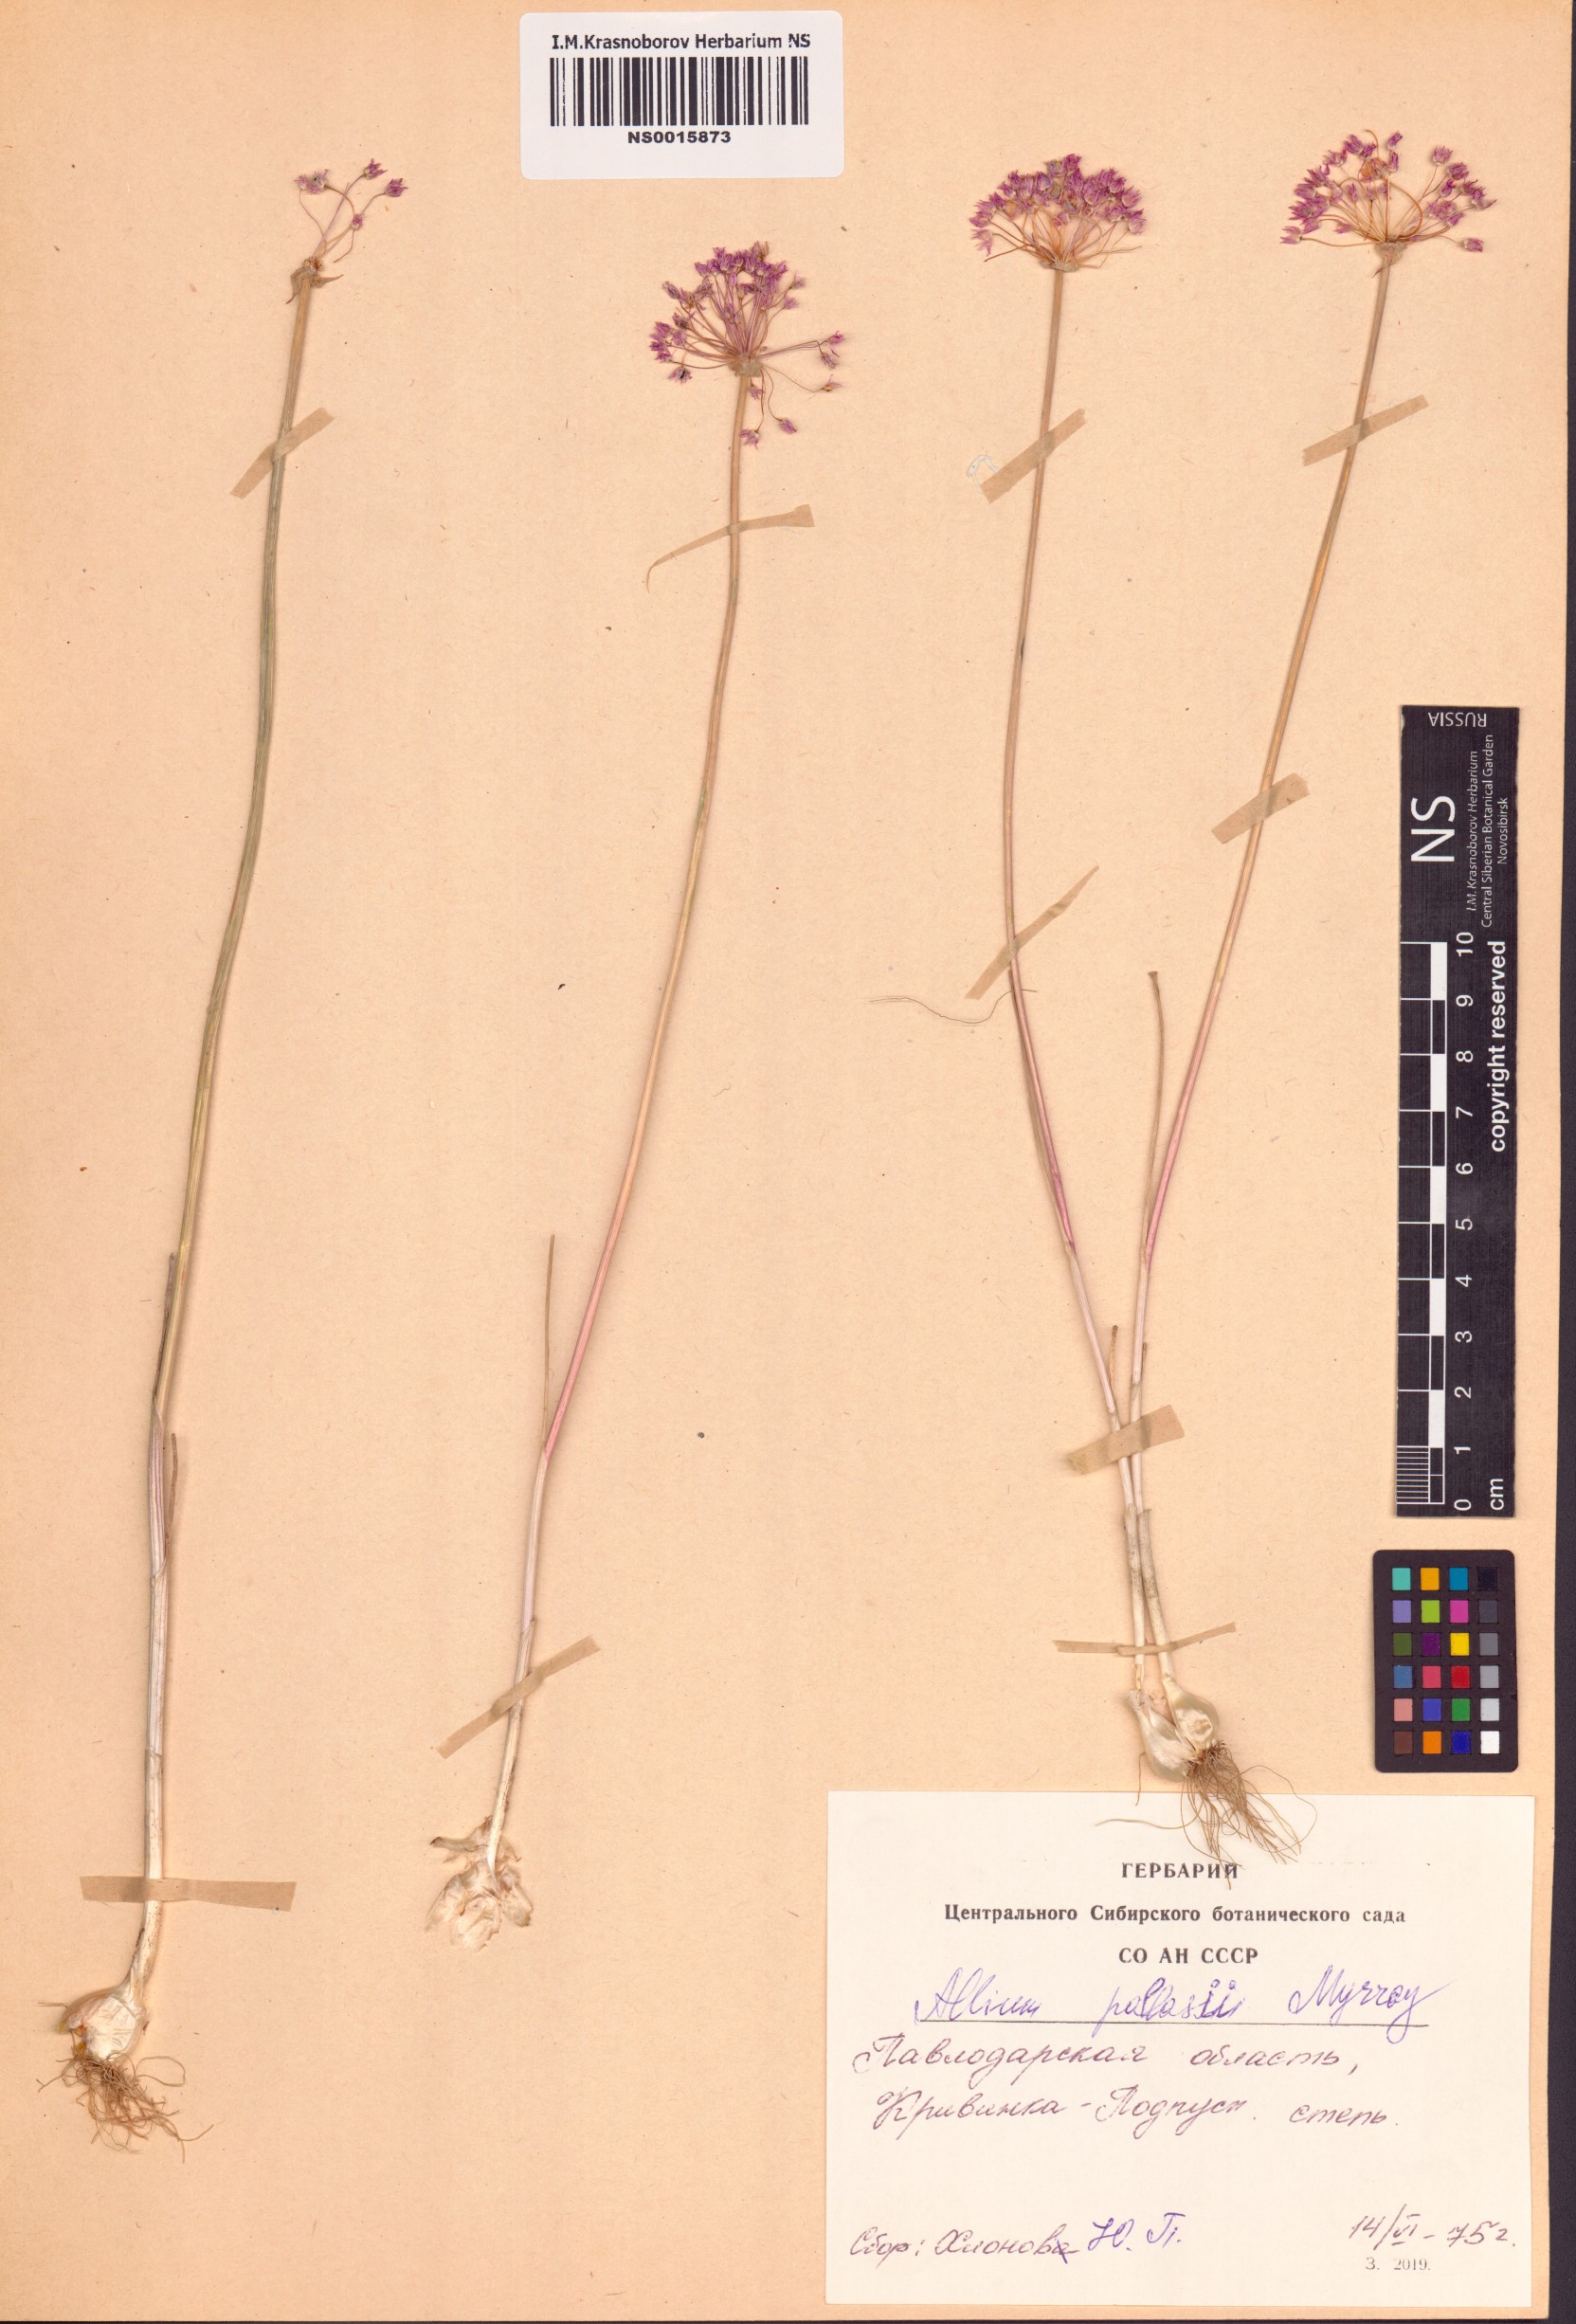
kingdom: Plantae
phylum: Tracheophyta
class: Liliopsida
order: Asparagales
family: Amaryllidaceae
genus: Allium
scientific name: Allium pallasii
